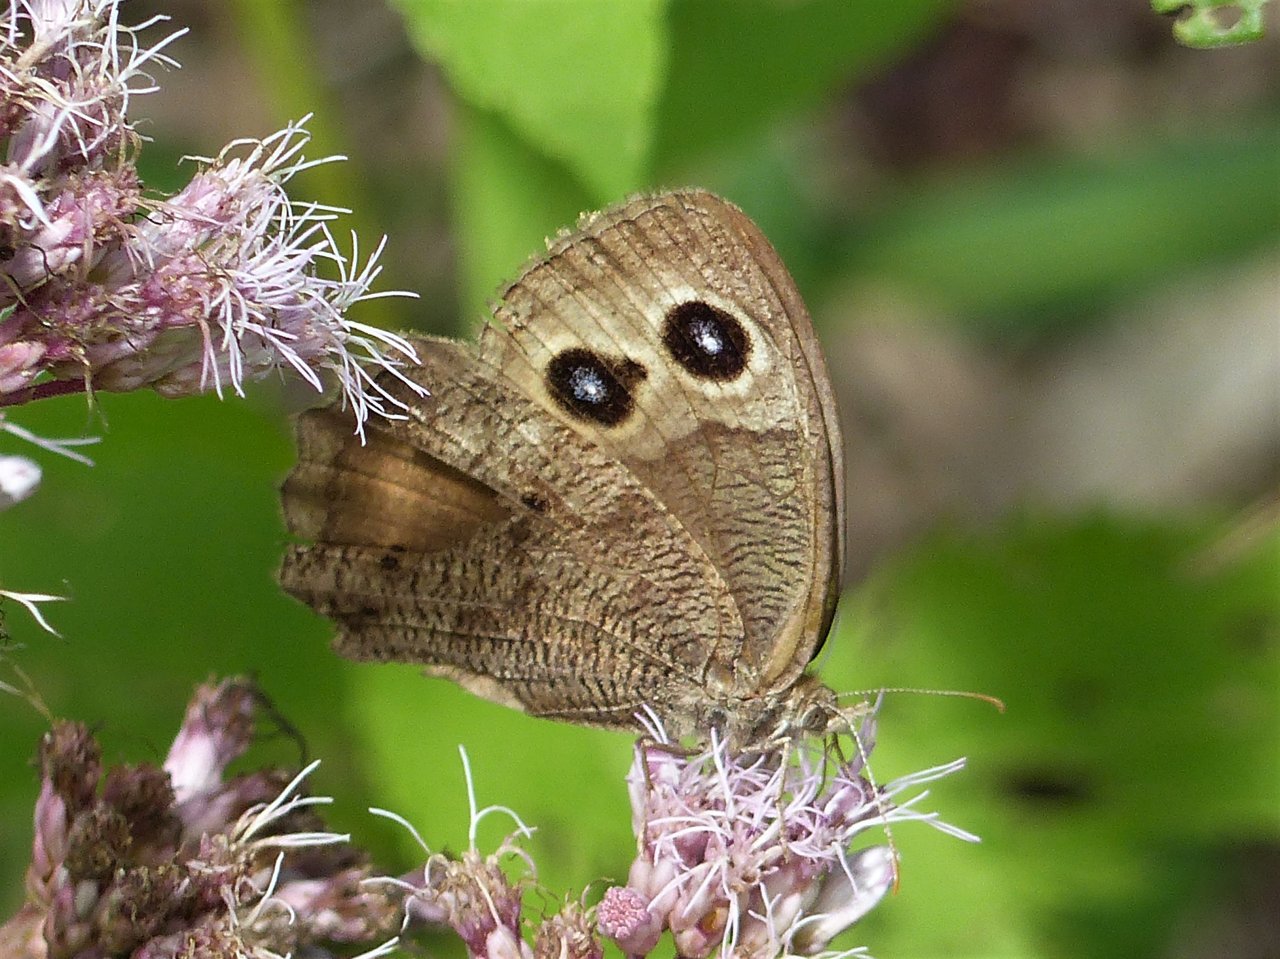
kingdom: Animalia
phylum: Arthropoda
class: Insecta
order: Lepidoptera
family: Nymphalidae
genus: Cercyonis
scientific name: Cercyonis pegala
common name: Common Wood-Nymph
